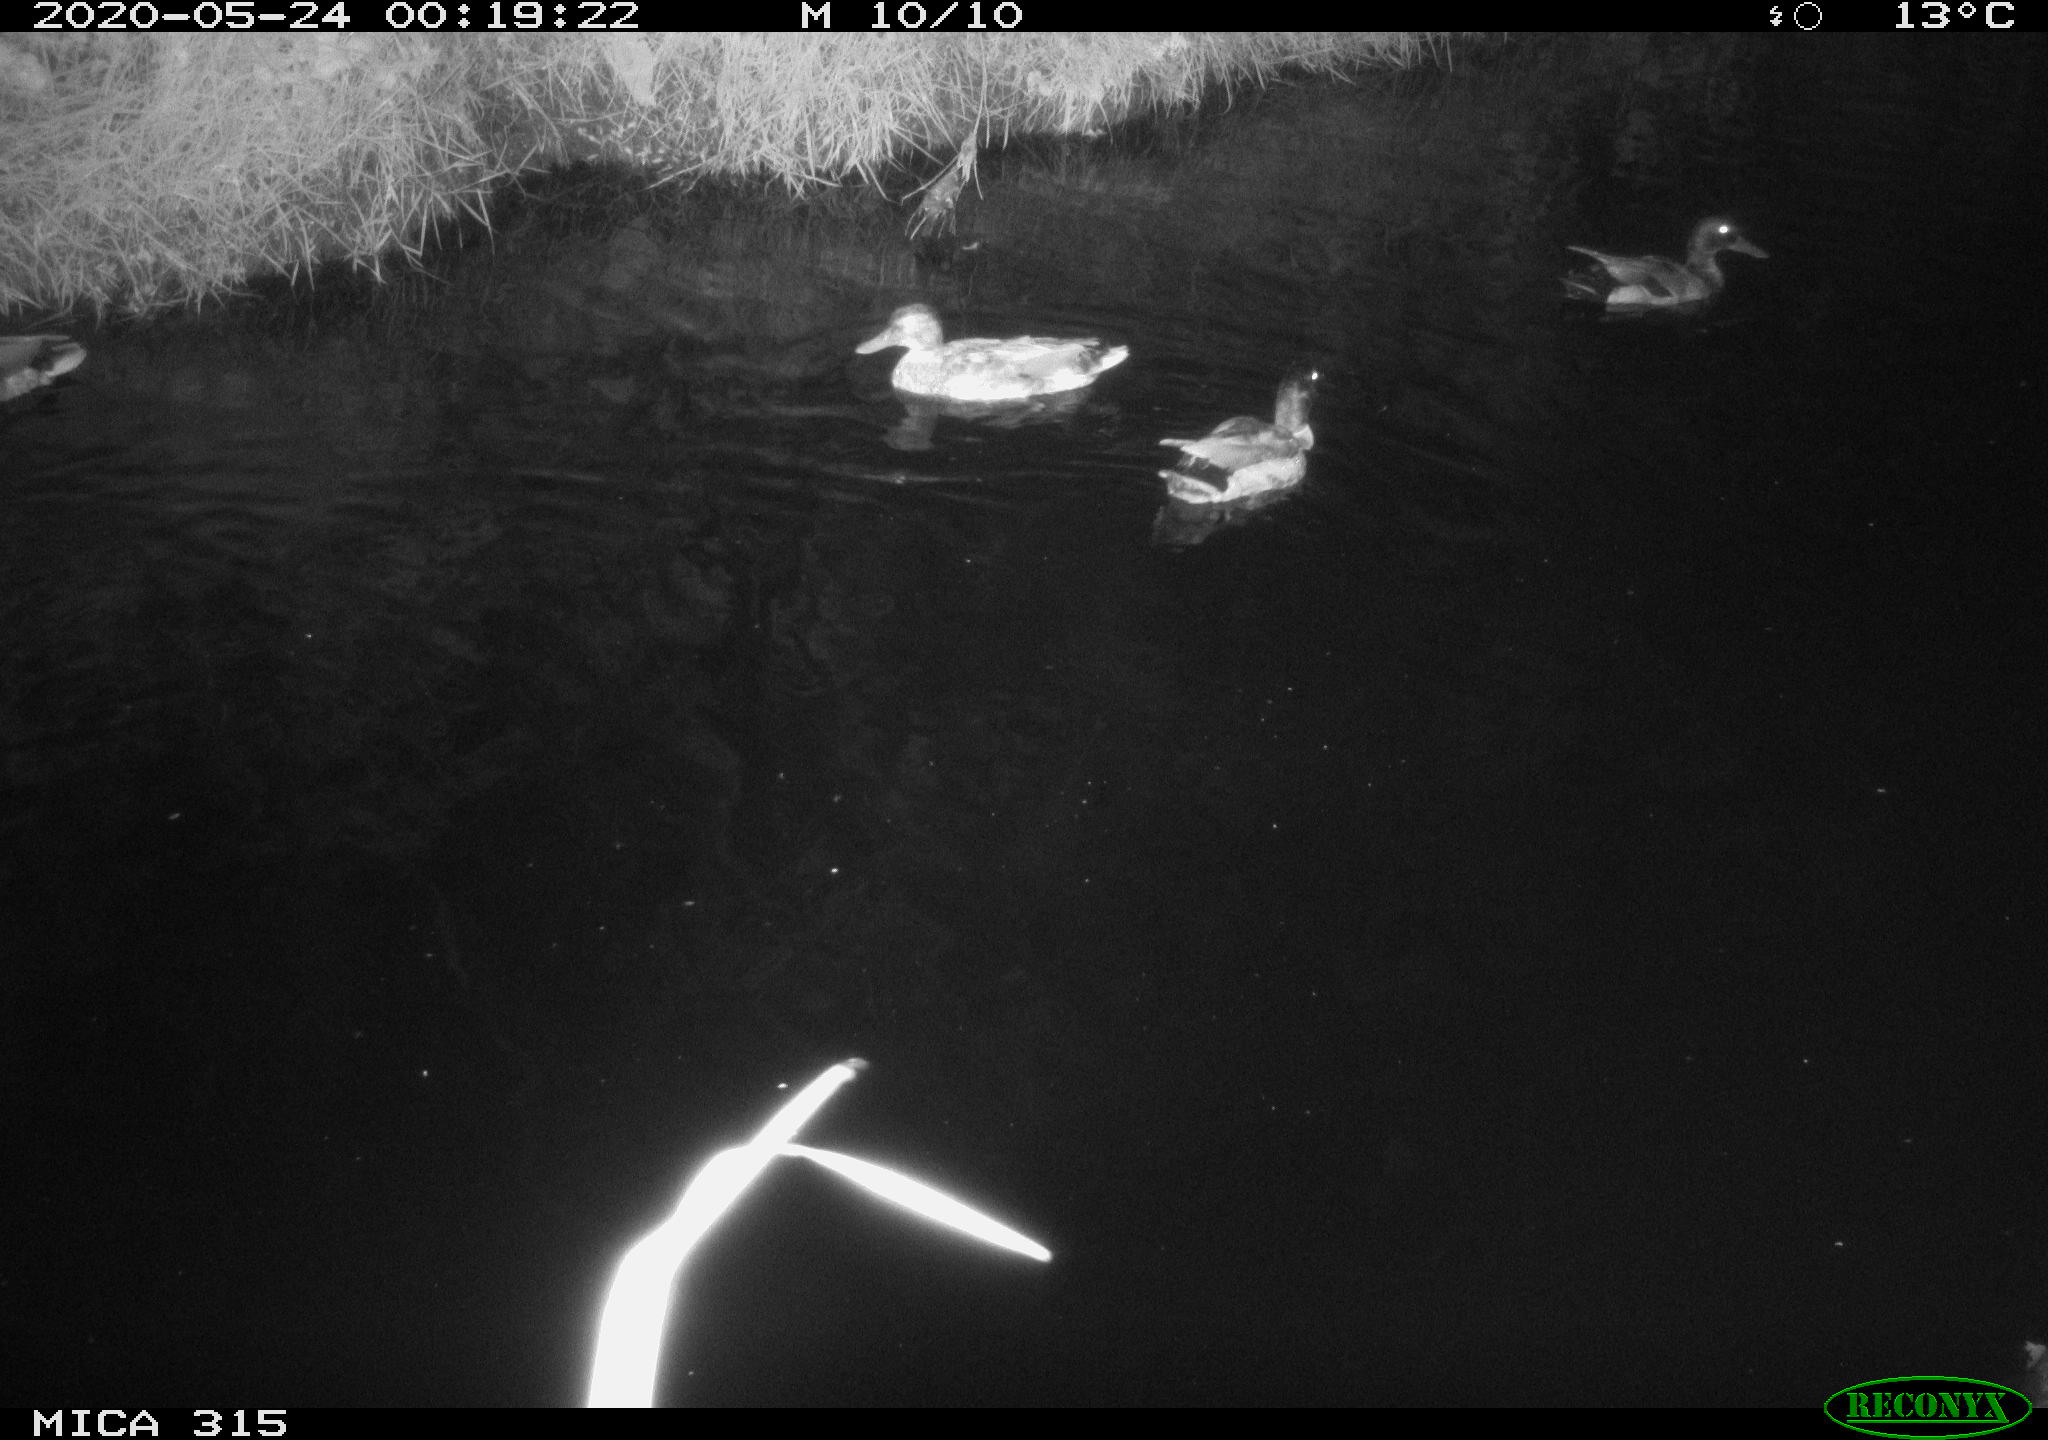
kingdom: Animalia
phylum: Chordata
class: Aves
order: Anseriformes
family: Anatidae
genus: Anas
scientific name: Anas platyrhynchos
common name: Mallard
